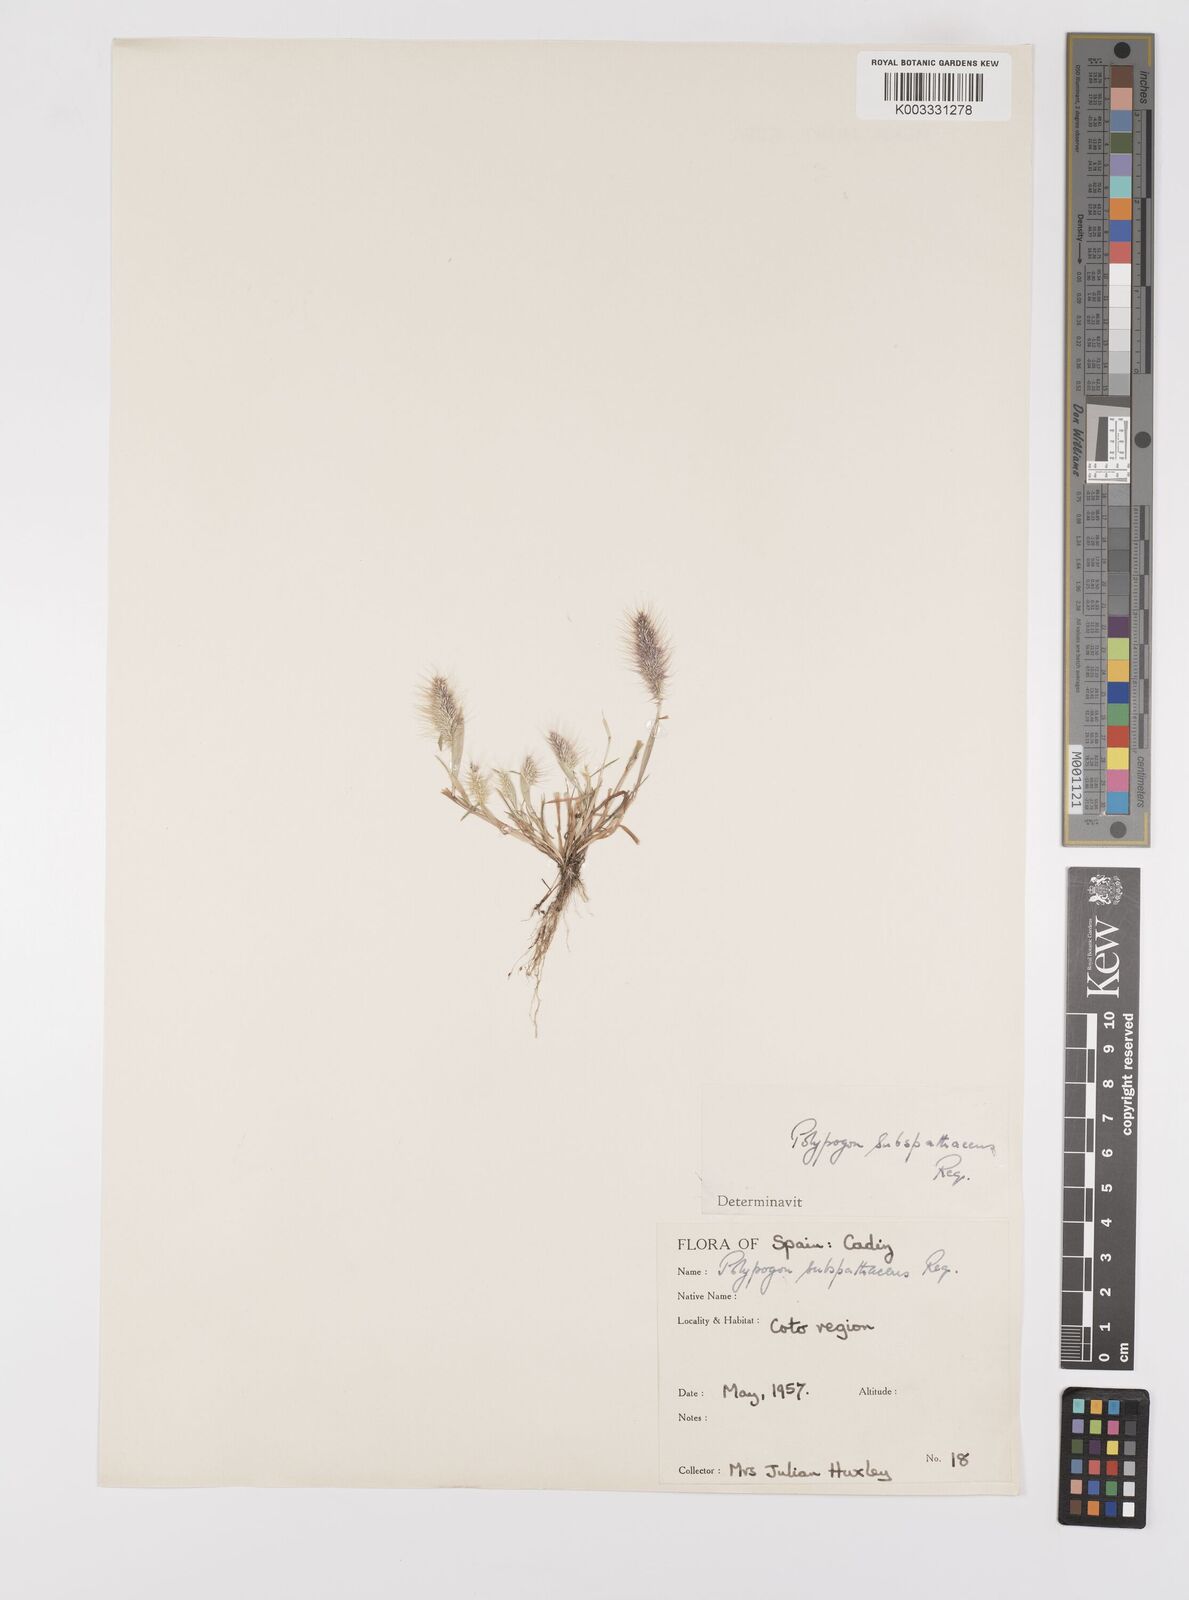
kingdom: Plantae
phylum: Tracheophyta
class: Liliopsida
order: Poales
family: Poaceae
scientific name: Poaceae
